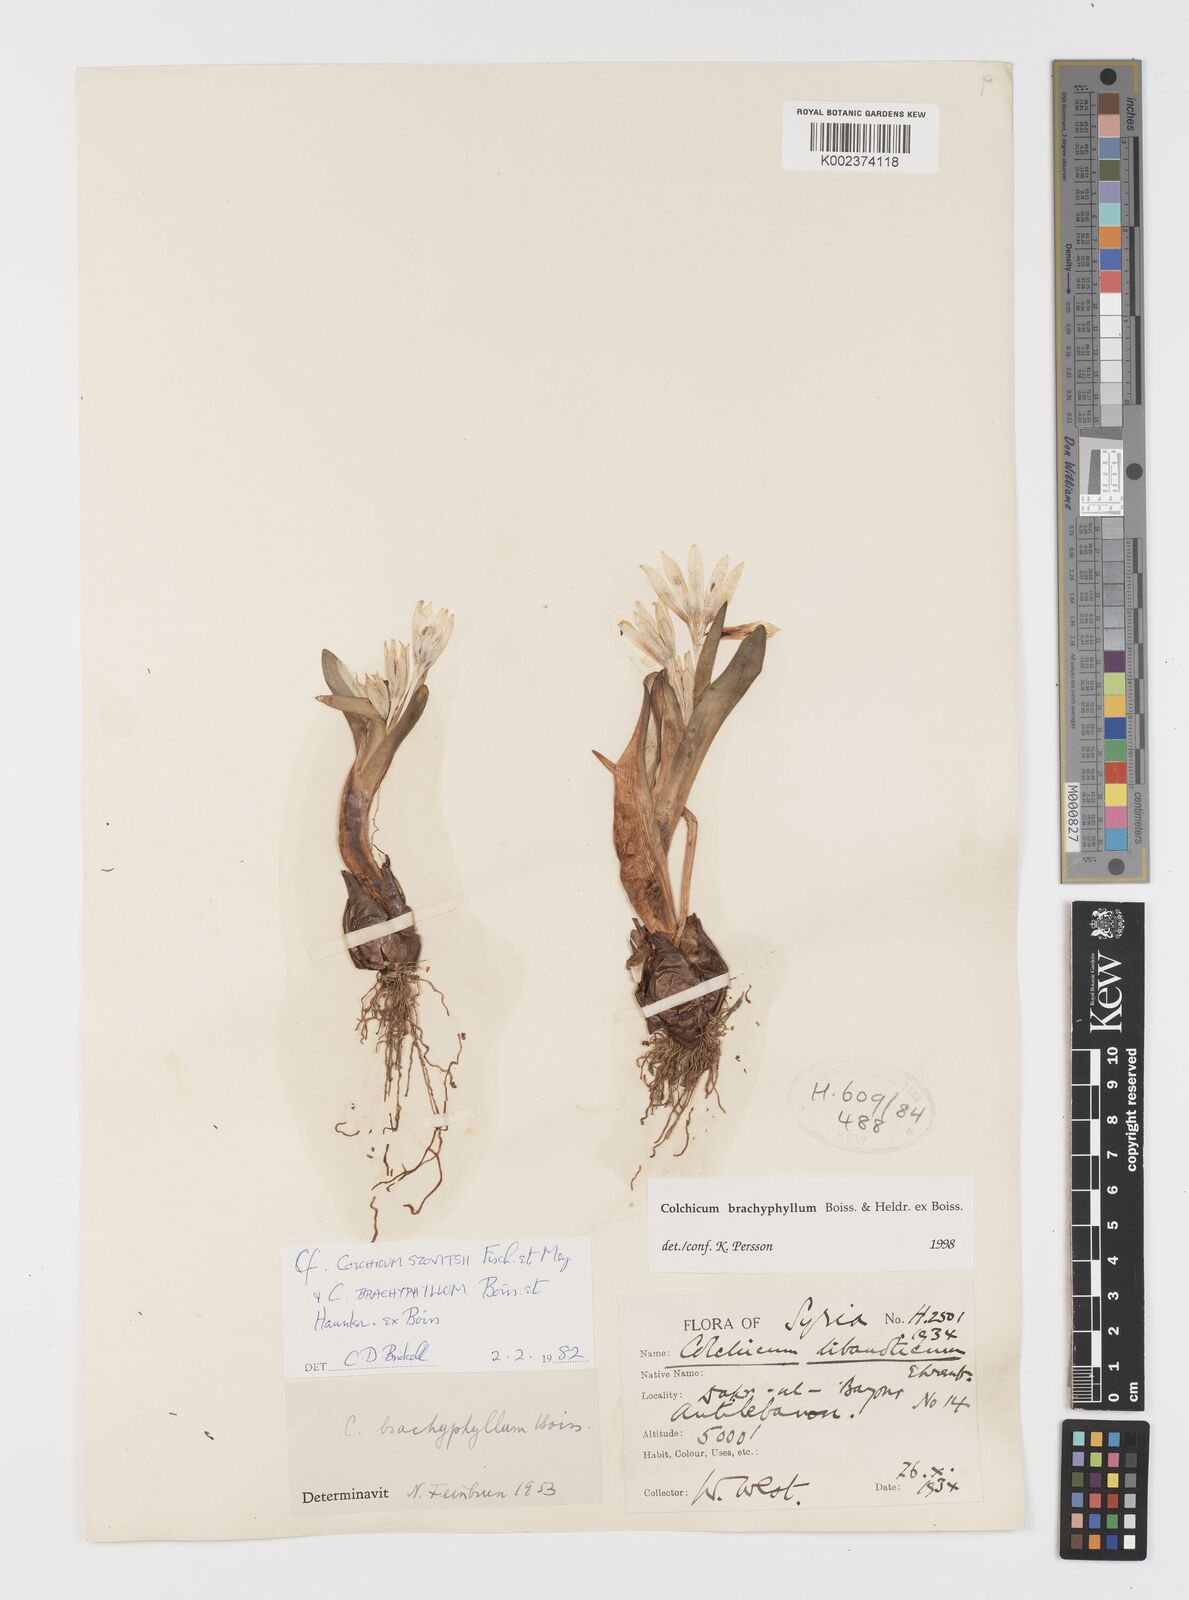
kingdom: Plantae
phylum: Tracheophyta
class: Liliopsida
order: Liliales
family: Colchicaceae
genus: Colchicum
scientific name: Colchicum szovitsii
